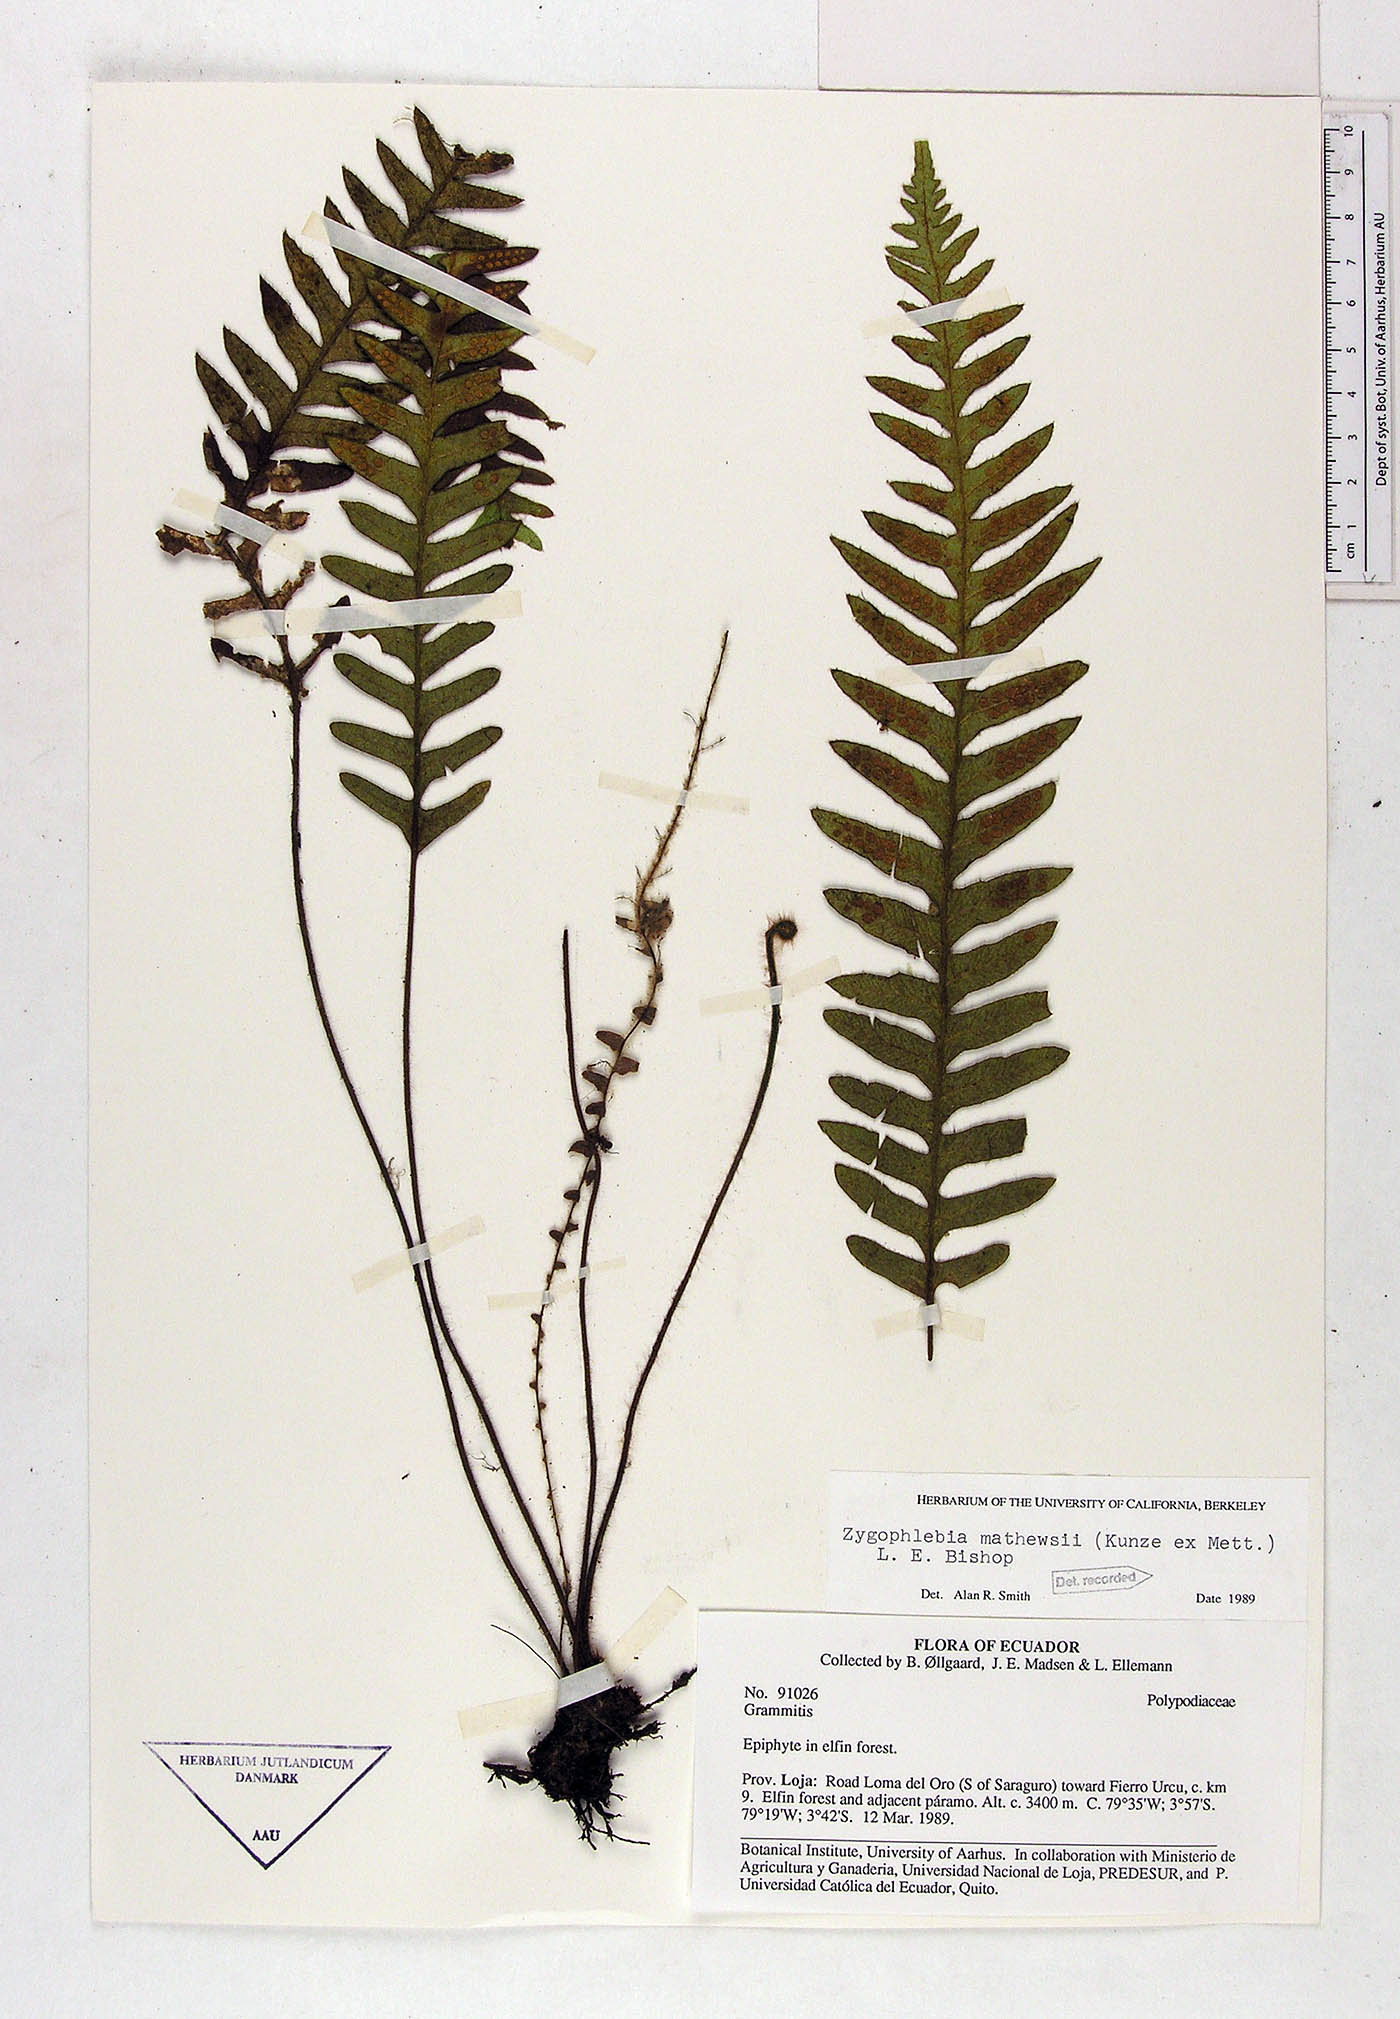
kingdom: Plantae
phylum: Tracheophyta
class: Polypodiopsida
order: Polypodiales
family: Polypodiaceae
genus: Enterosora
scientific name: Enterosora mathewsii
